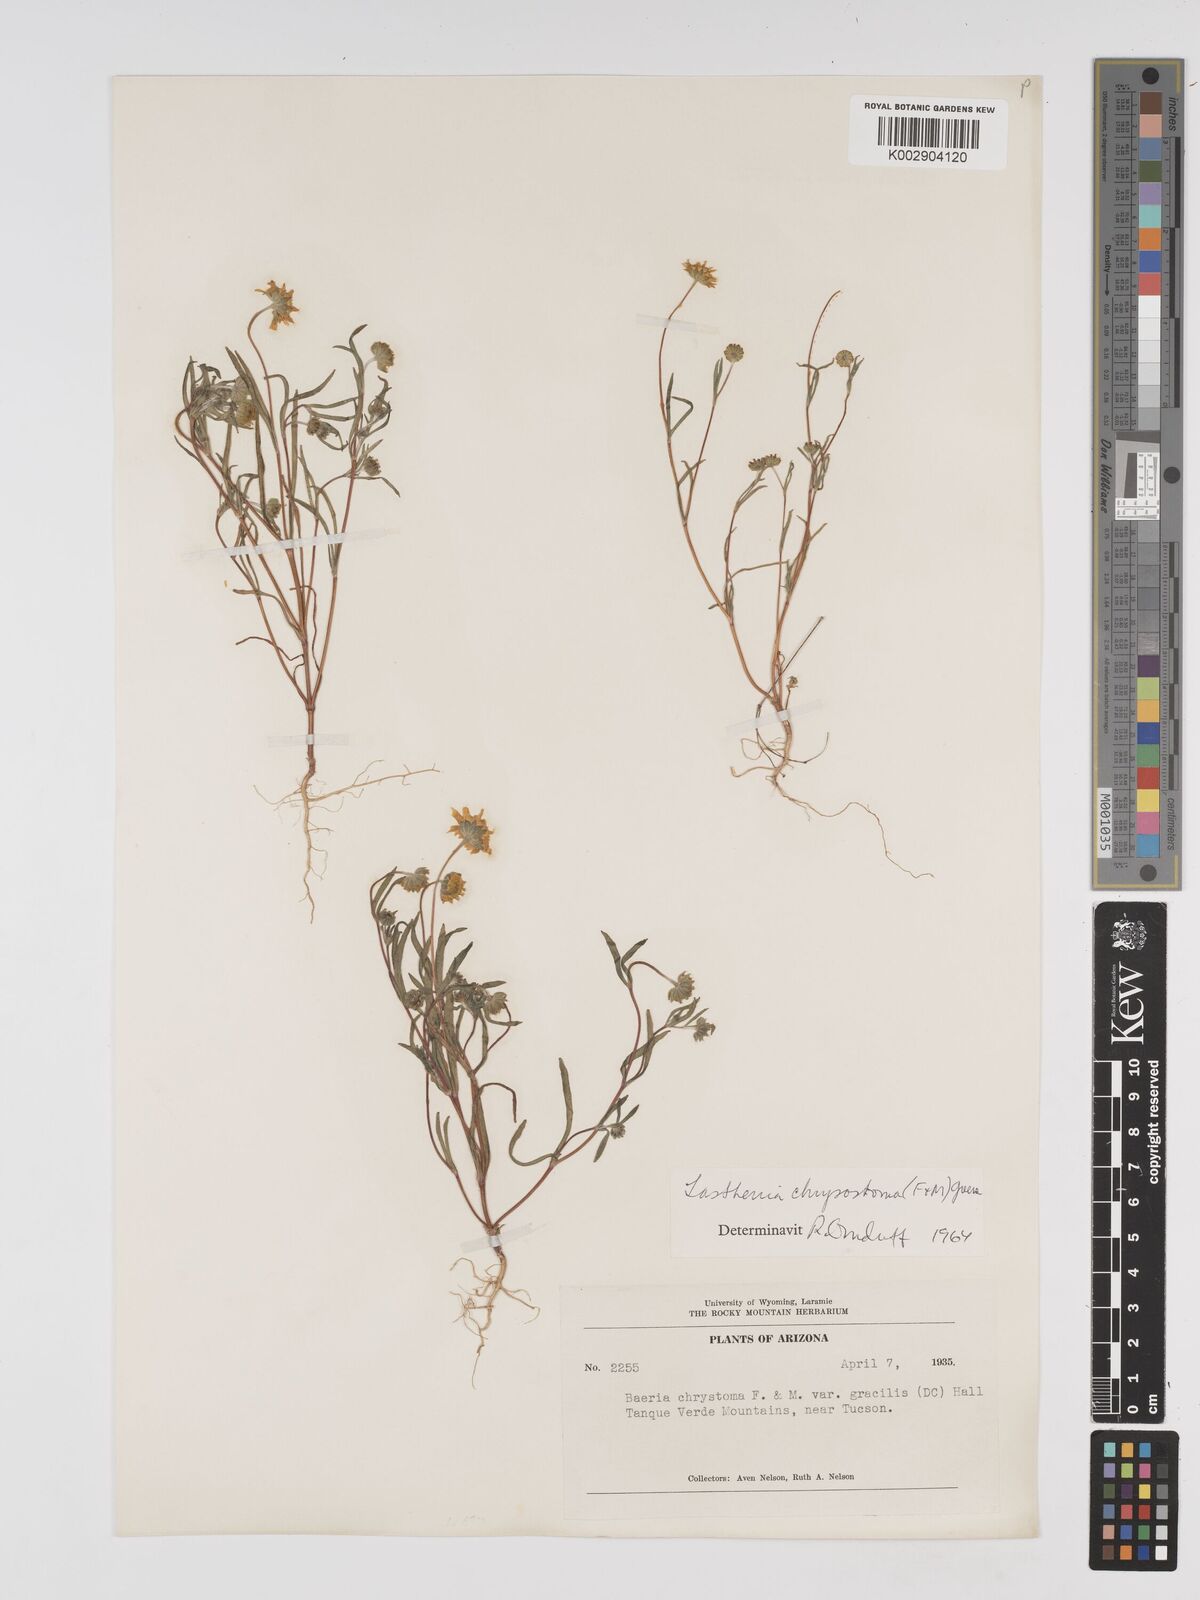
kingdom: Plantae
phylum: Tracheophyta
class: Magnoliopsida
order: Asterales
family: Asteraceae
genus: Lasthenia
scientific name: Lasthenia californica
